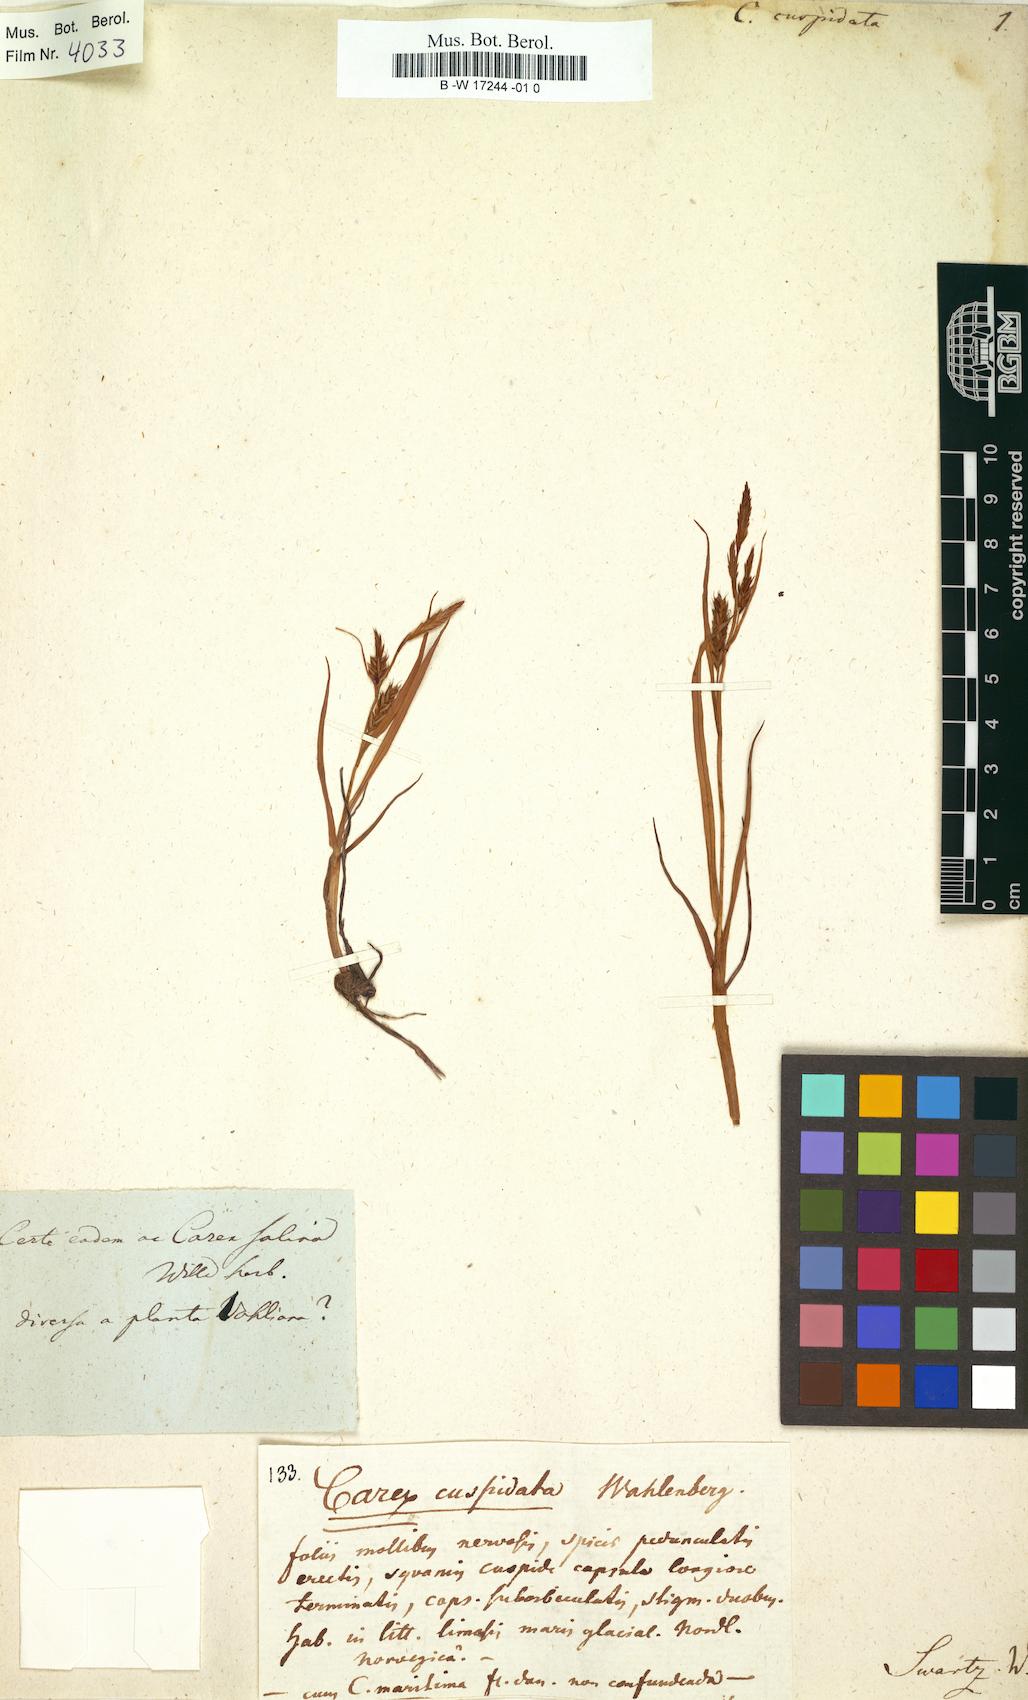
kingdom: Plantae
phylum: Tracheophyta
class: Liliopsida
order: Poales
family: Cyperaceae
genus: Carex
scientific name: Carex cuspidata
